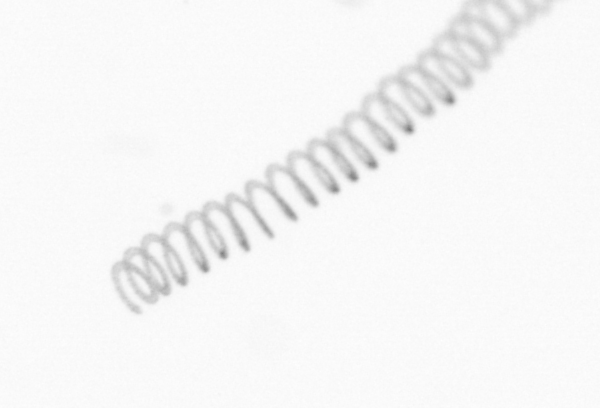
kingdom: Chromista
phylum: Ochrophyta
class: Bacillariophyceae
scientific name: Bacillariophyceae
